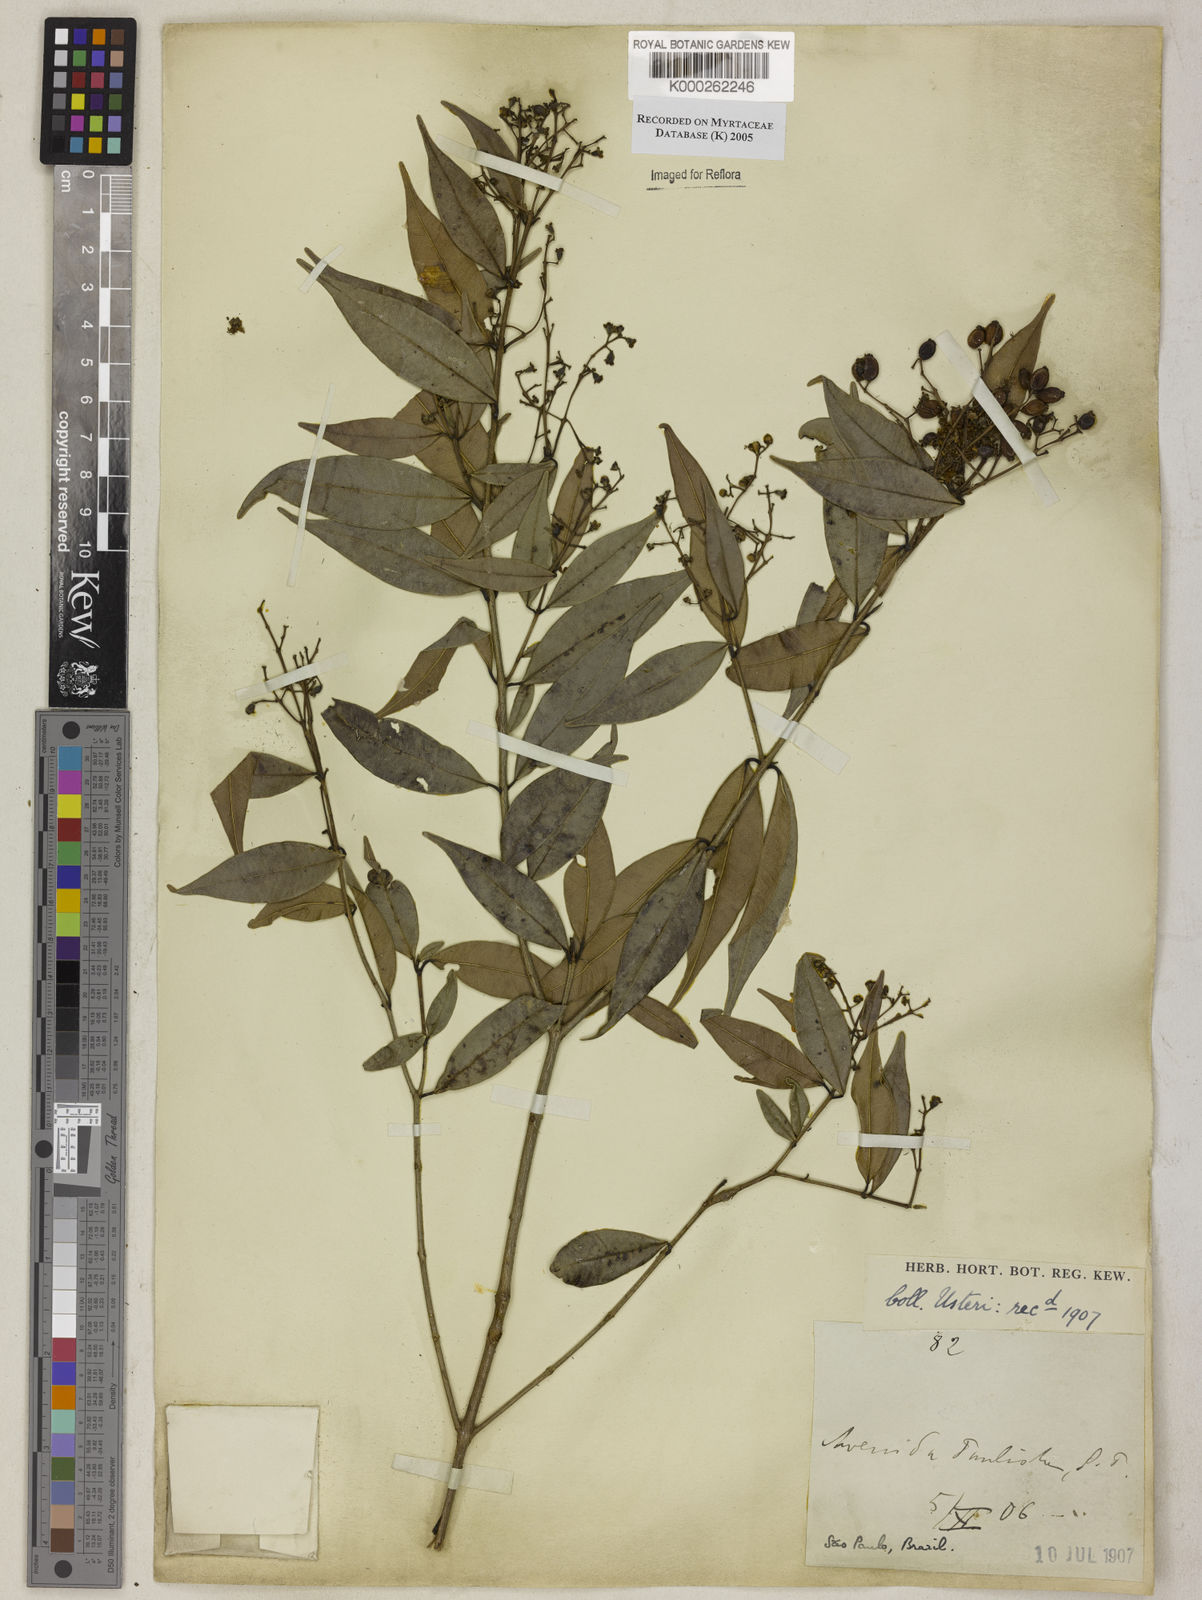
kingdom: Plantae
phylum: Tracheophyta
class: Magnoliopsida
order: Myrtales
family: Myrtaceae
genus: Myrcia
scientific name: Myrcia splendens
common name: Surinam cherry
